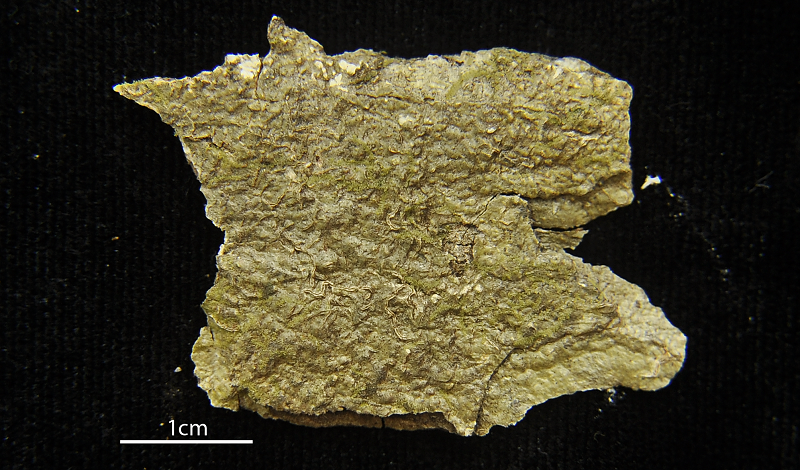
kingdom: Fungi
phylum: Ascomycota
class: Arthoniomycetes
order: Arthoniales
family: Opegraphaceae
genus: Opegrapha
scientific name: Opegrapha
